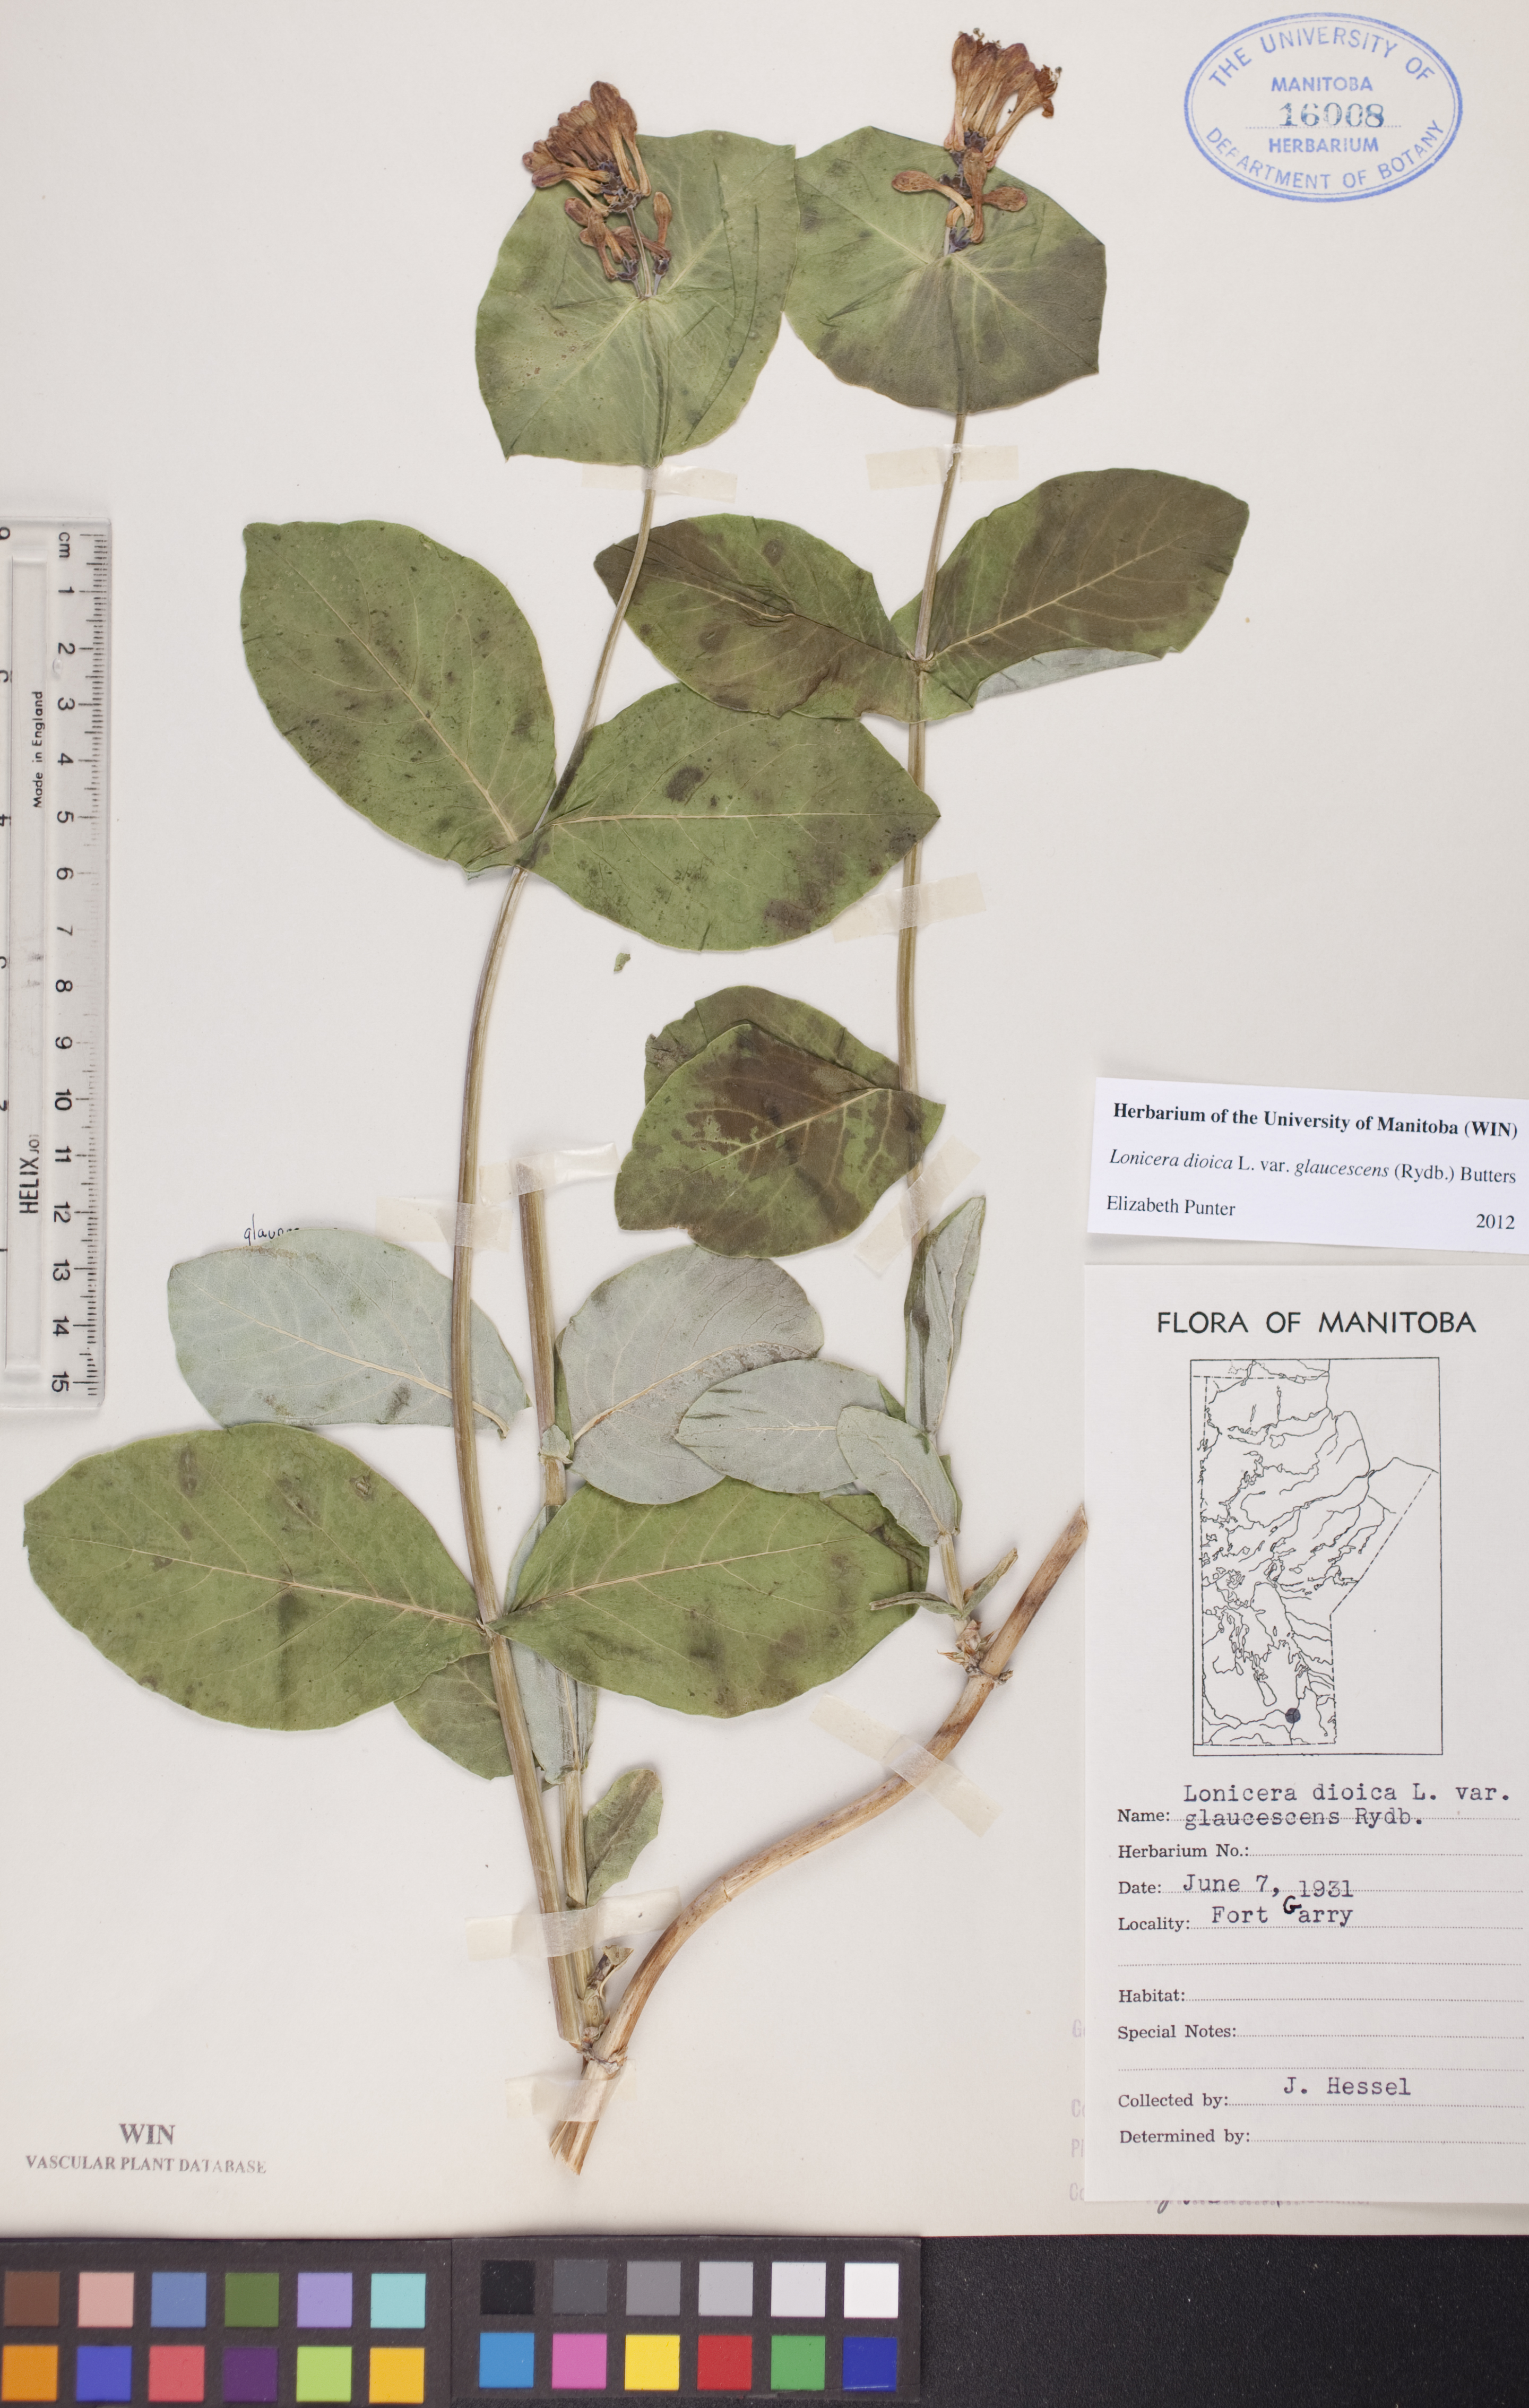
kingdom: Plantae
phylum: Tracheophyta
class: Magnoliopsida
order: Dipsacales
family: Caprifoliaceae
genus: Lonicera
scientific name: Lonicera dioica
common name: Limber honeysuckle
